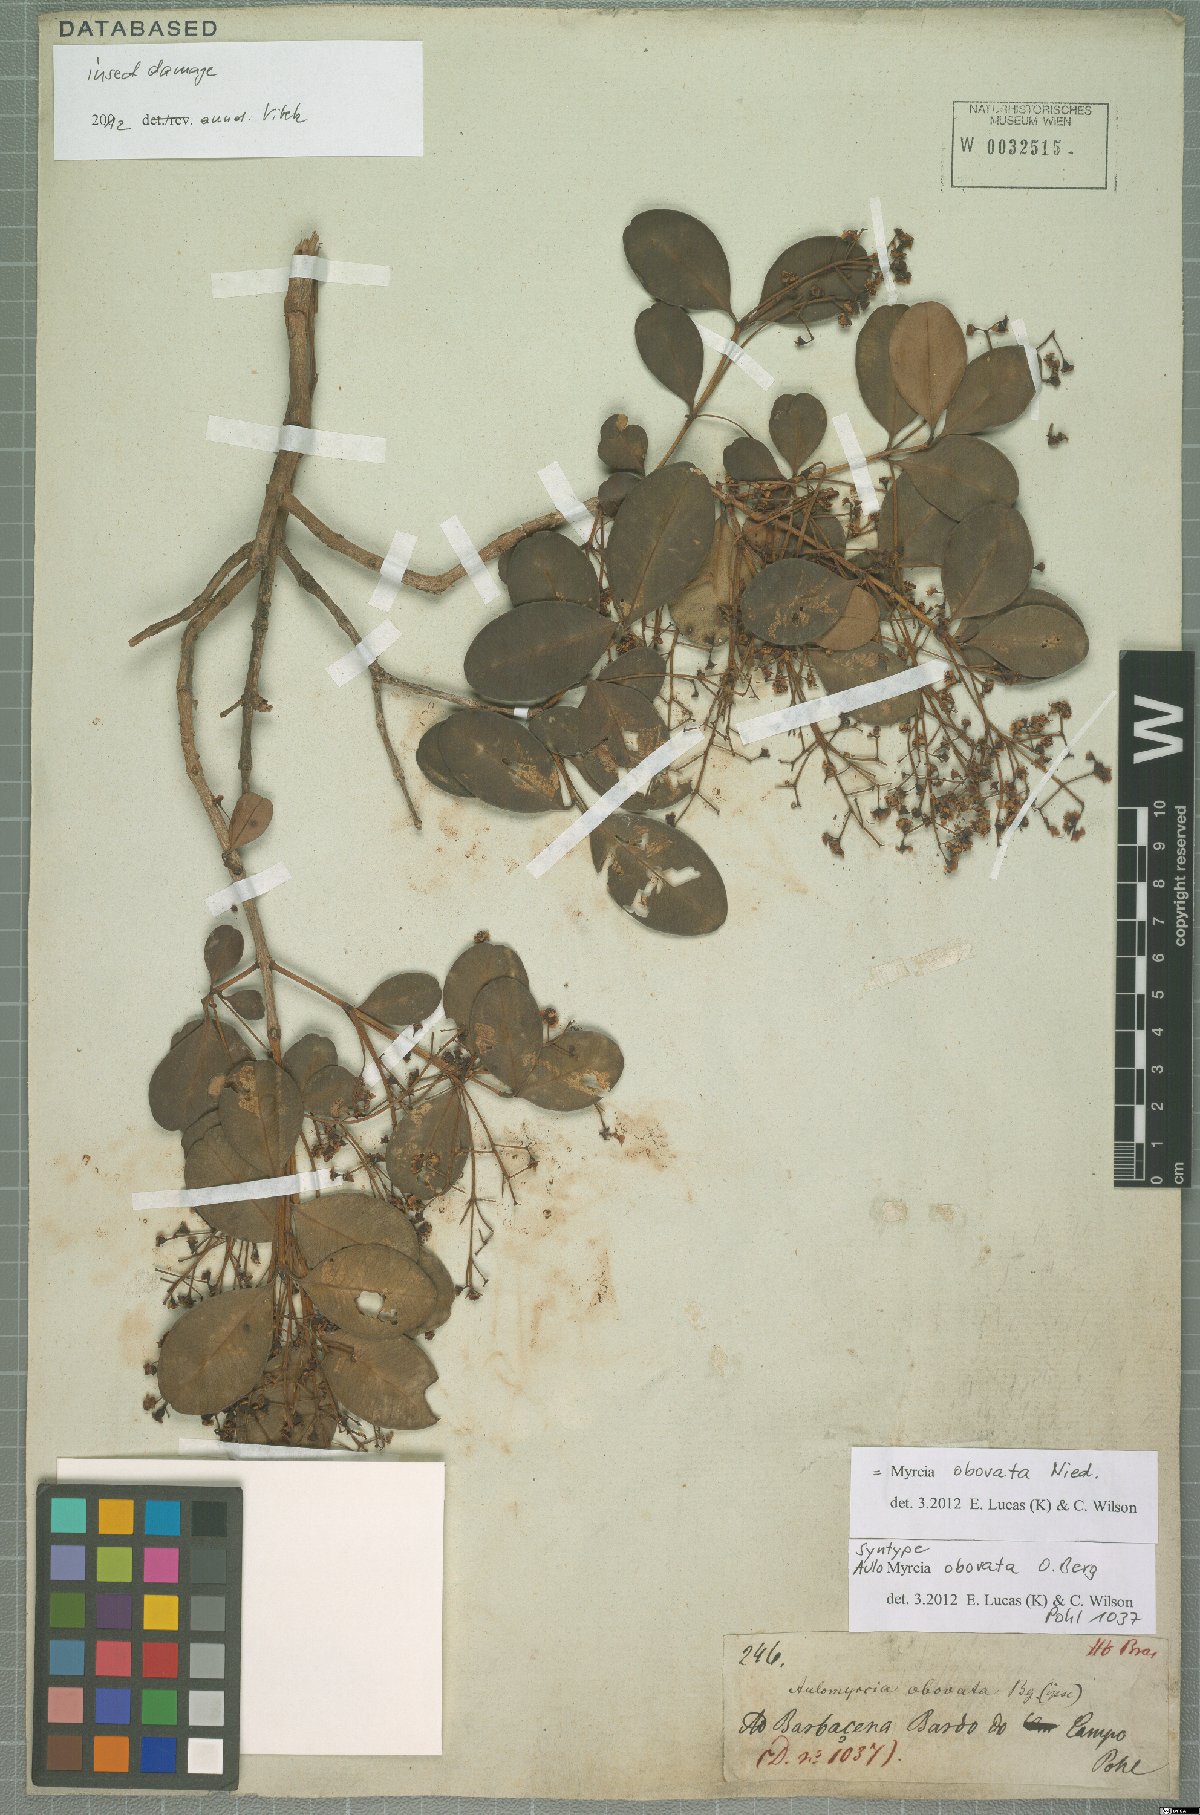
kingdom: Plantae
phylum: Tracheophyta
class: Magnoliopsida
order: Myrtales
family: Myrtaceae
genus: Myrcia
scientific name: Myrcia obovata
